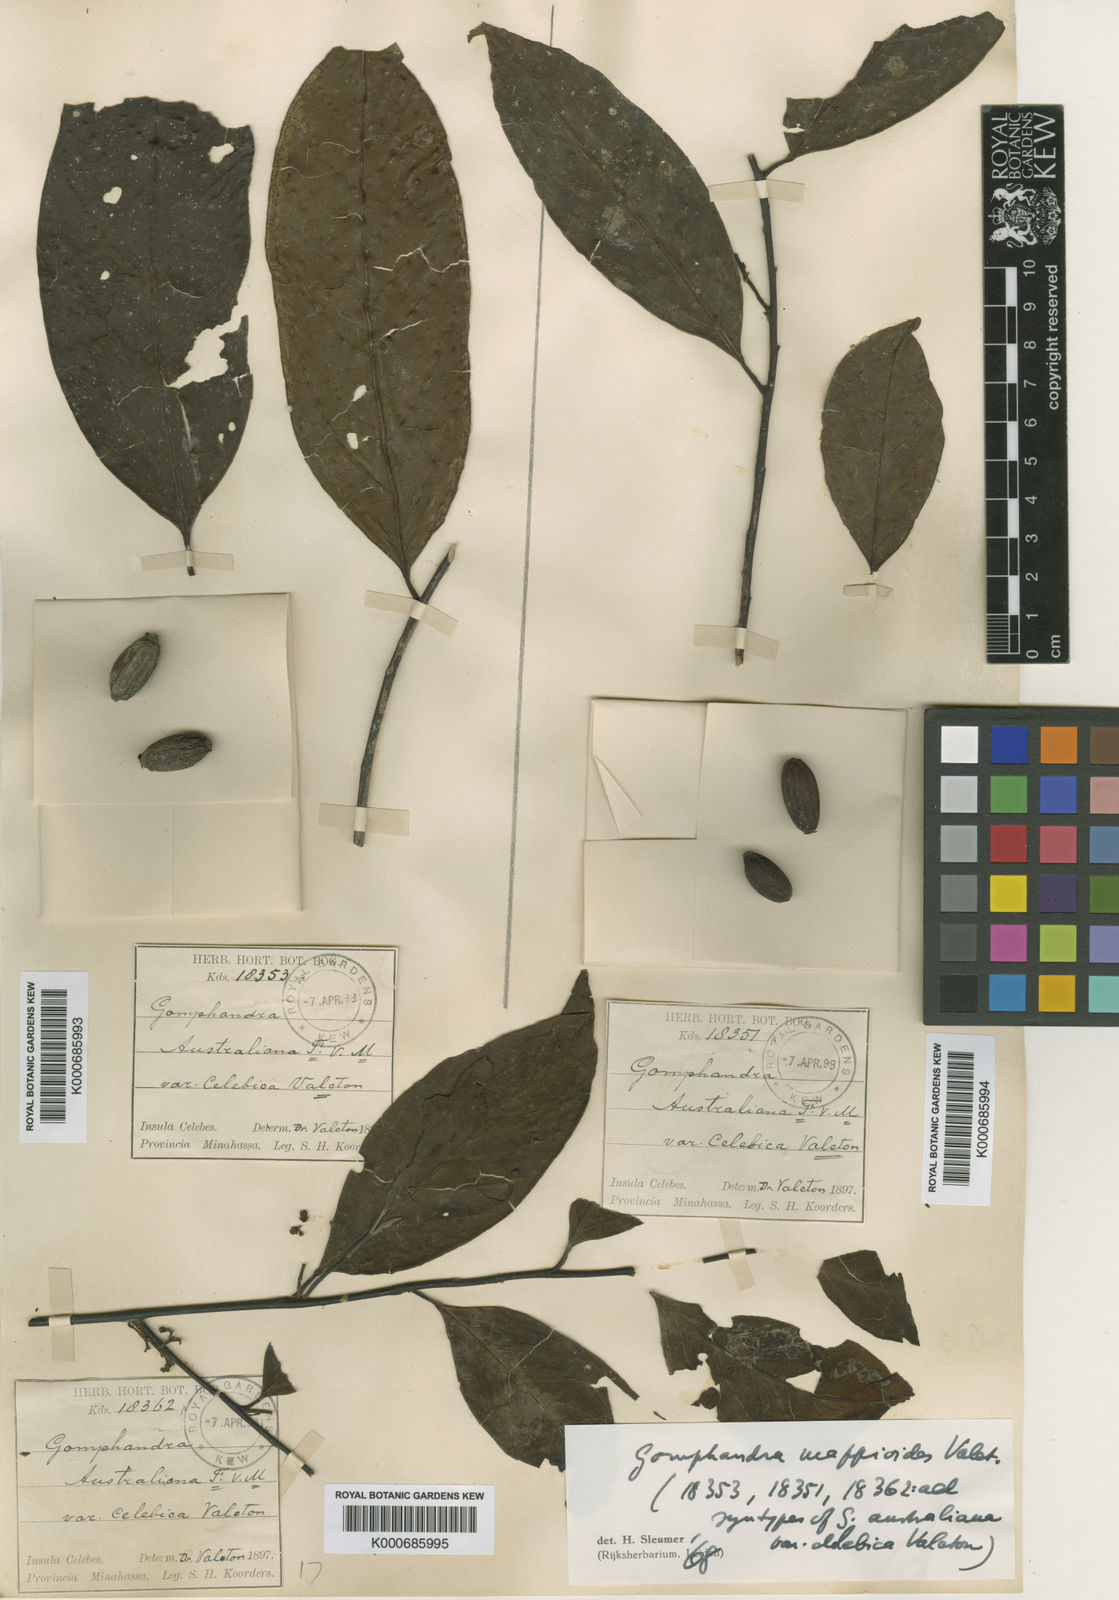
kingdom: Plantae
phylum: Tracheophyta
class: Magnoliopsida
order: Cardiopteridales
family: Stemonuraceae
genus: Gomphandra
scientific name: Gomphandra mappioides
